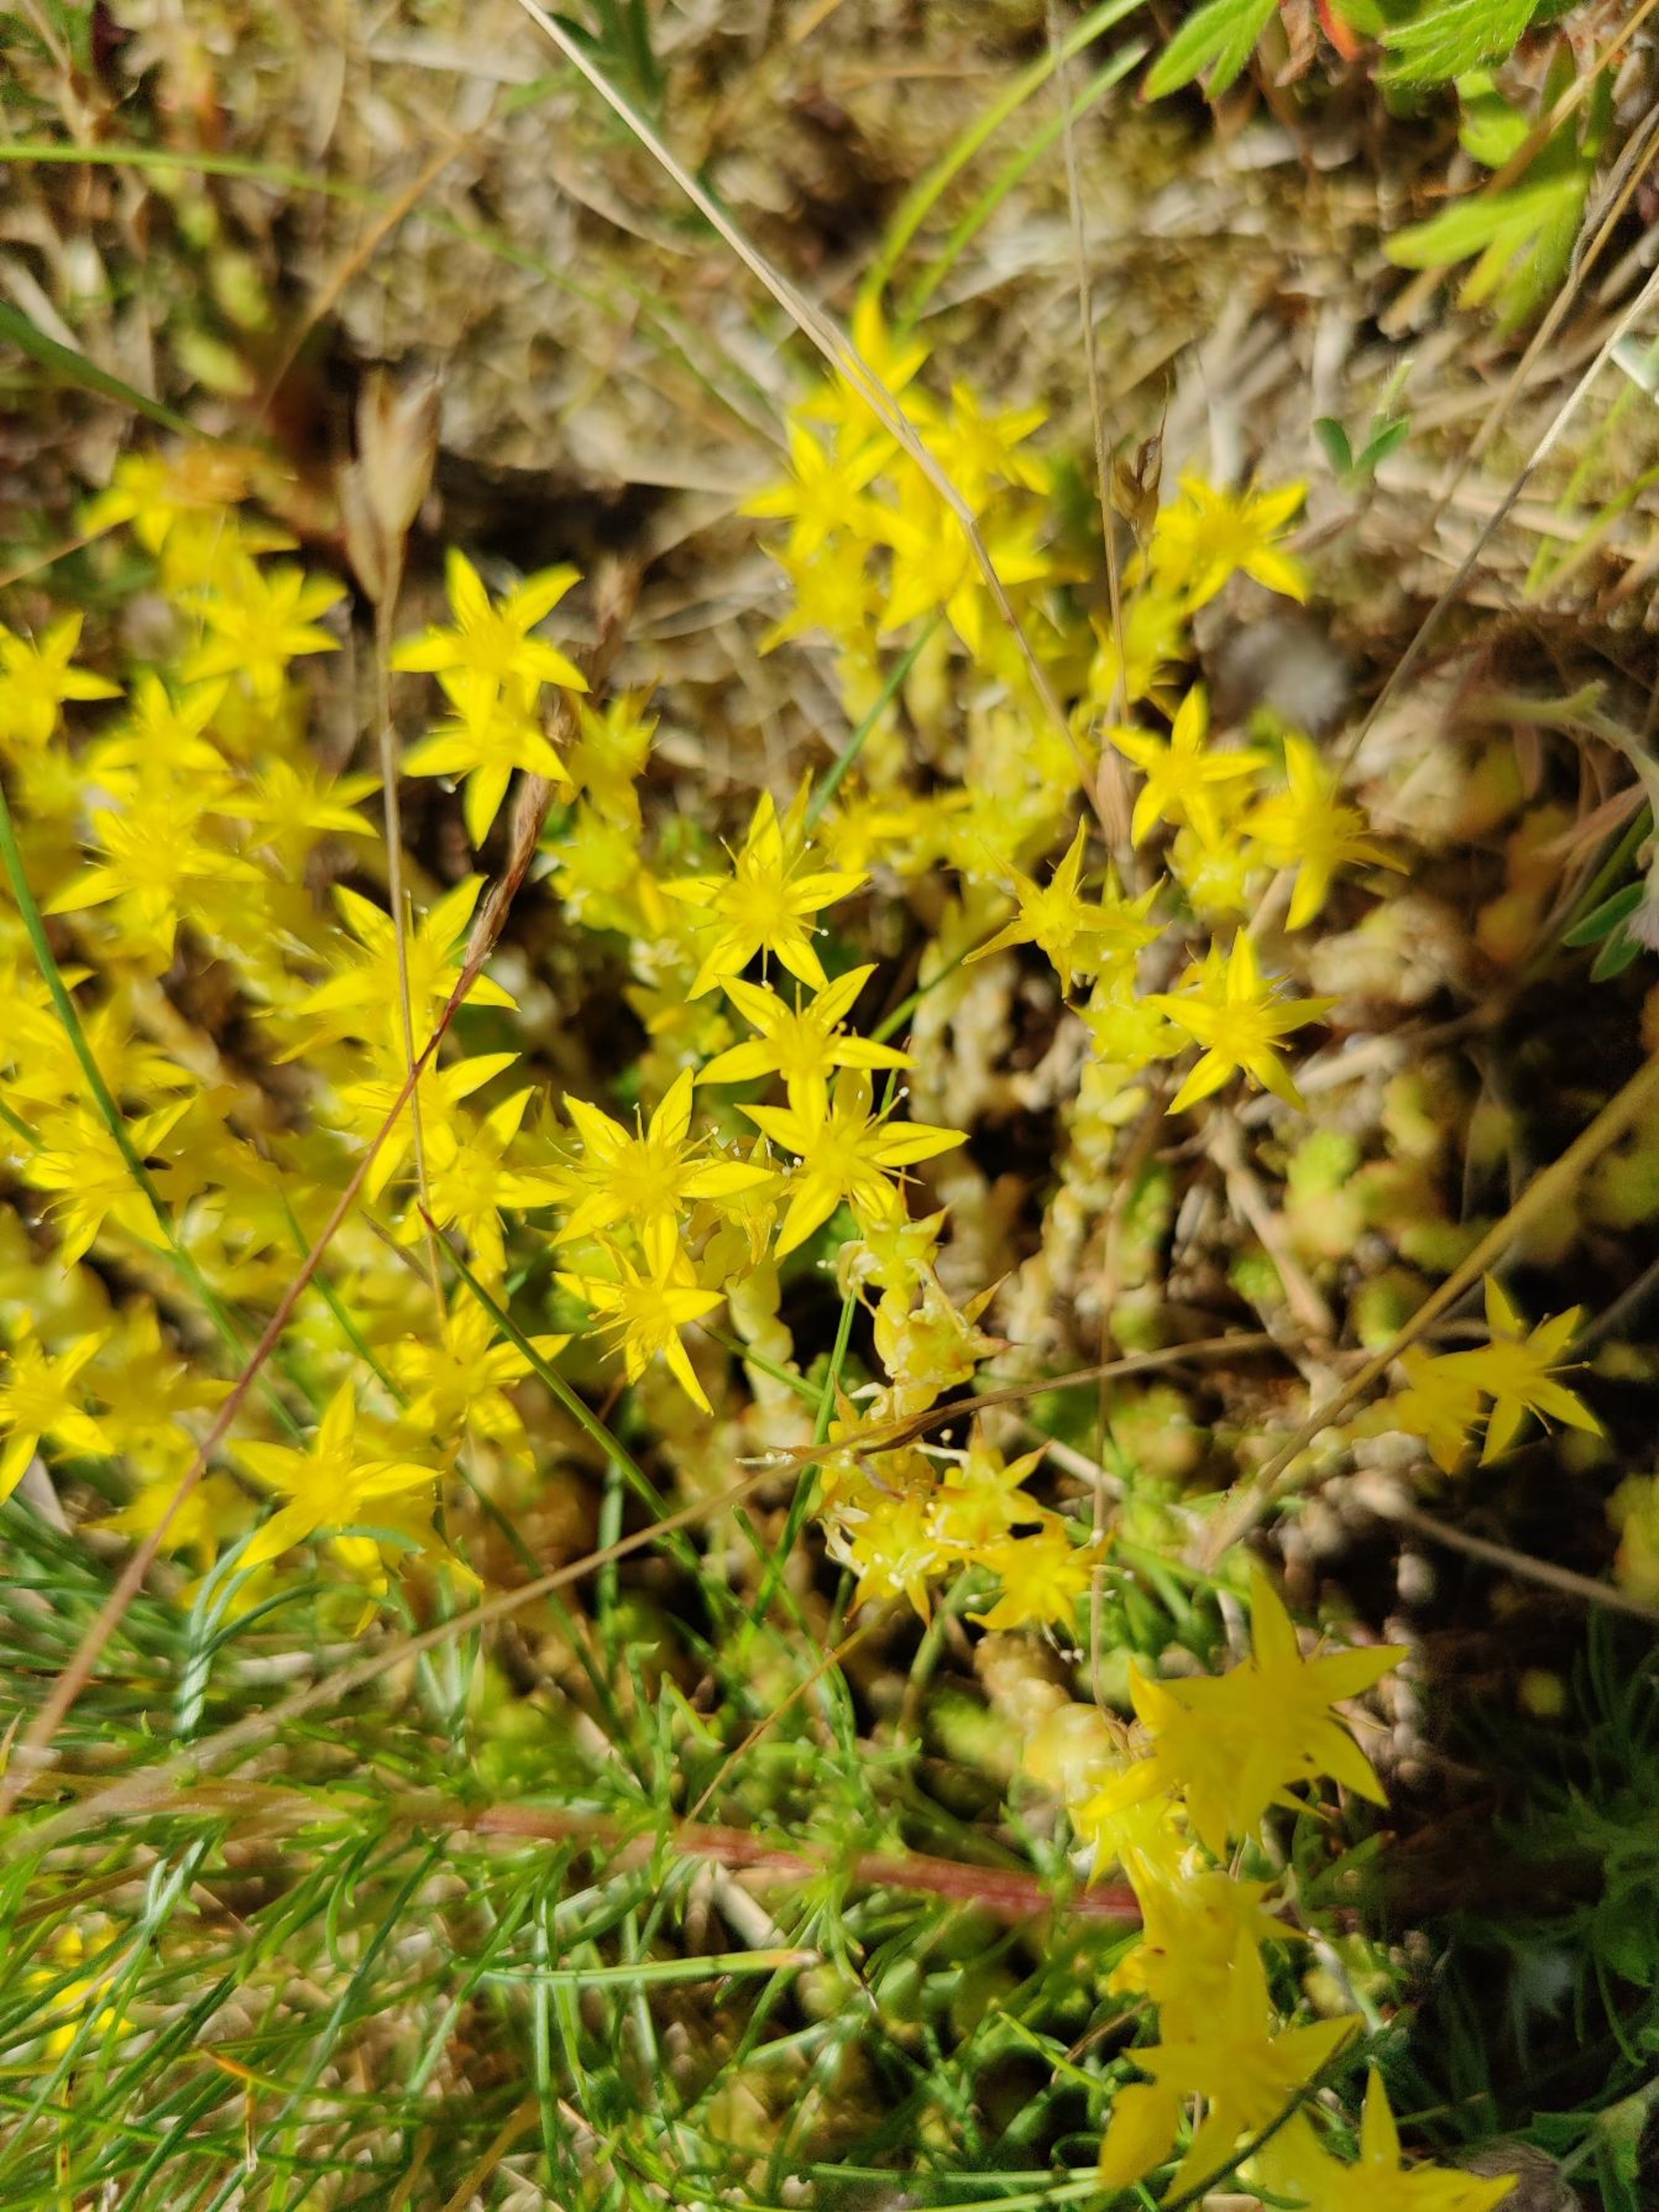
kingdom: Plantae
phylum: Tracheophyta
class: Magnoliopsida
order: Saxifragales
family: Crassulaceae
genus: Sedum
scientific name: Sedum acre
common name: Bidende stenurt
